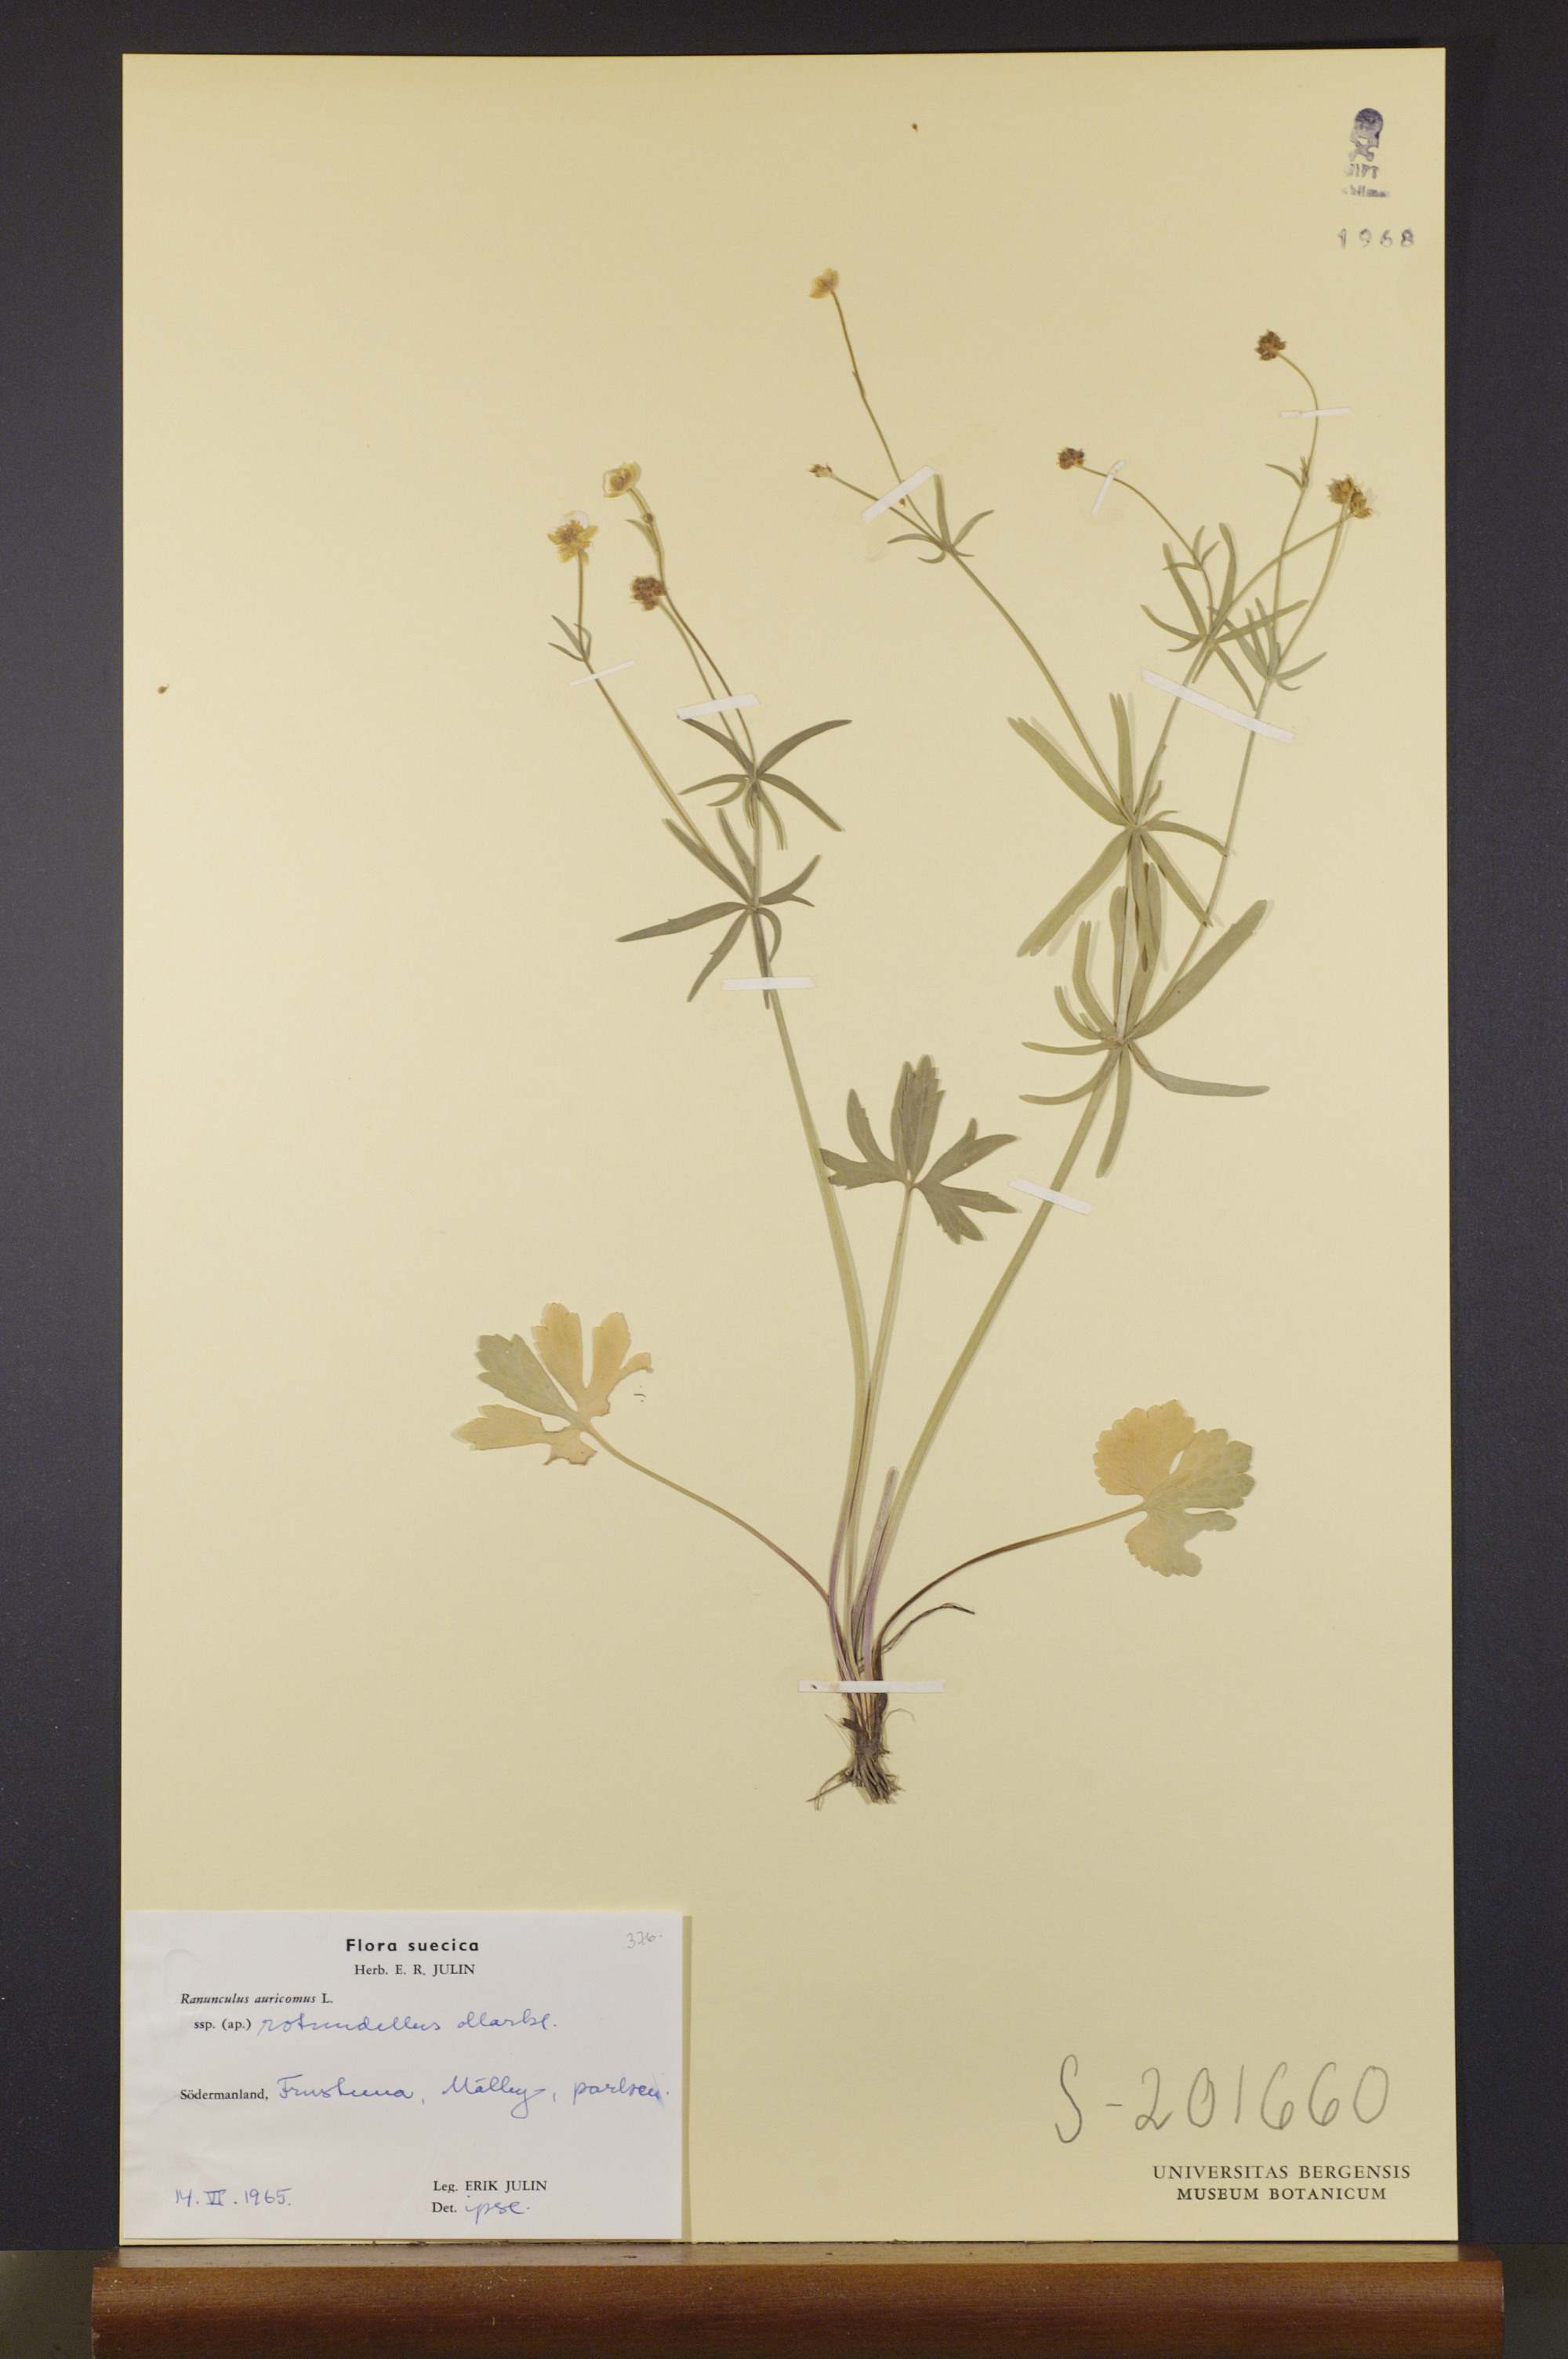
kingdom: Plantae
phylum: Tracheophyta
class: Magnoliopsida
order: Ranunculales
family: Ranunculaceae
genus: Ranunculus
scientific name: Ranunculus rotundellus
